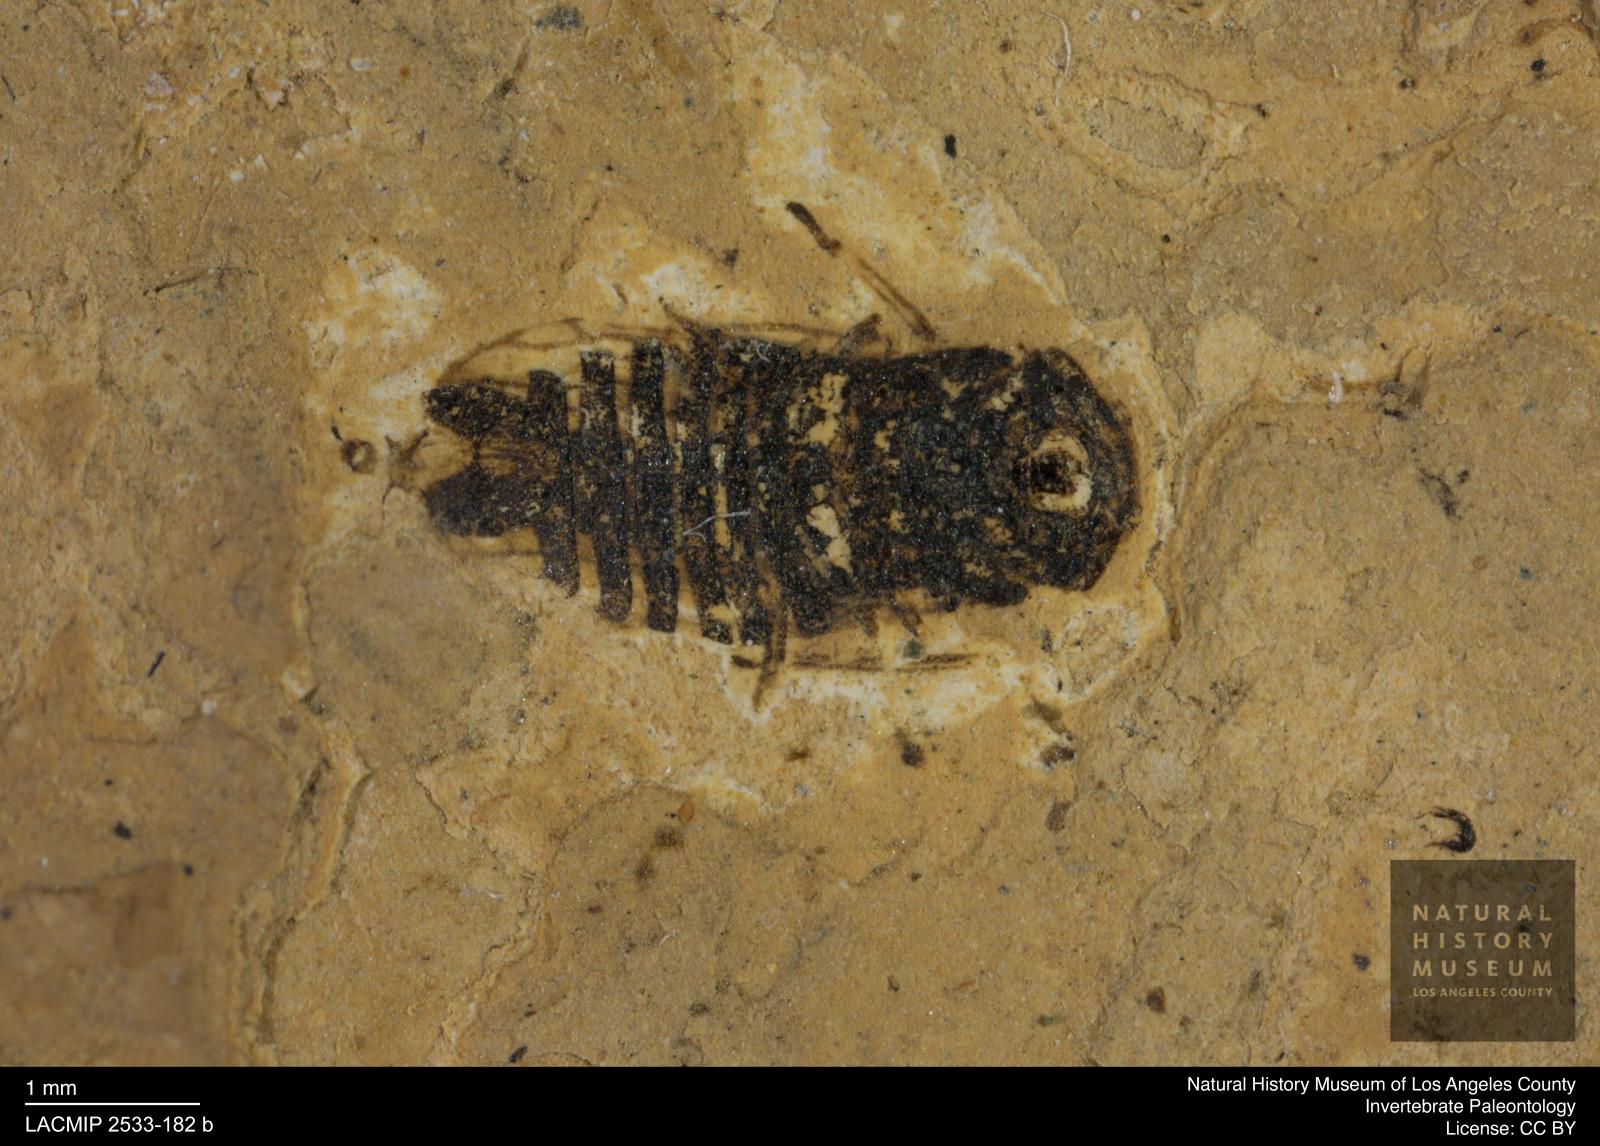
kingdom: Animalia
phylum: Arthropoda
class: Insecta
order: Hemiptera
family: Cicadellidae
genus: Megophthalmus
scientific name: Megophthalmus fortivenosus
